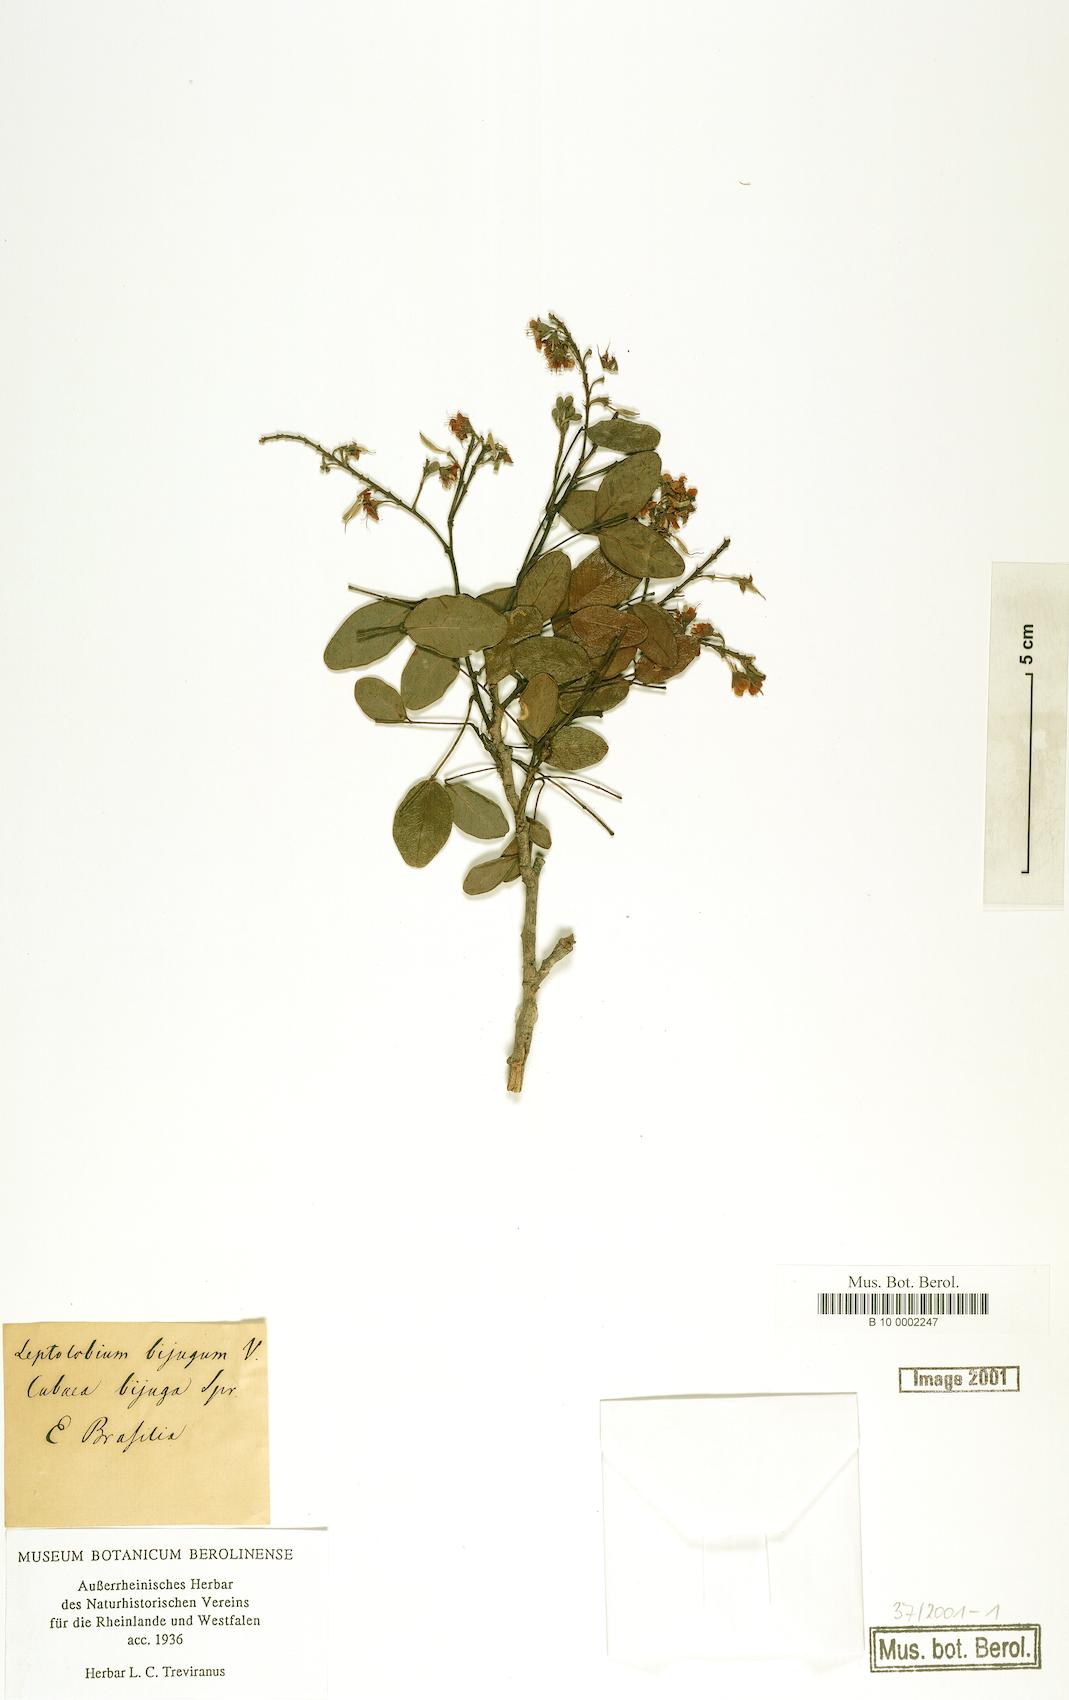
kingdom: Plantae
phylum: Tracheophyta
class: Magnoliopsida
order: Fabales
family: Fabaceae
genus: Leptolobium
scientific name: Leptolobium bijugum
